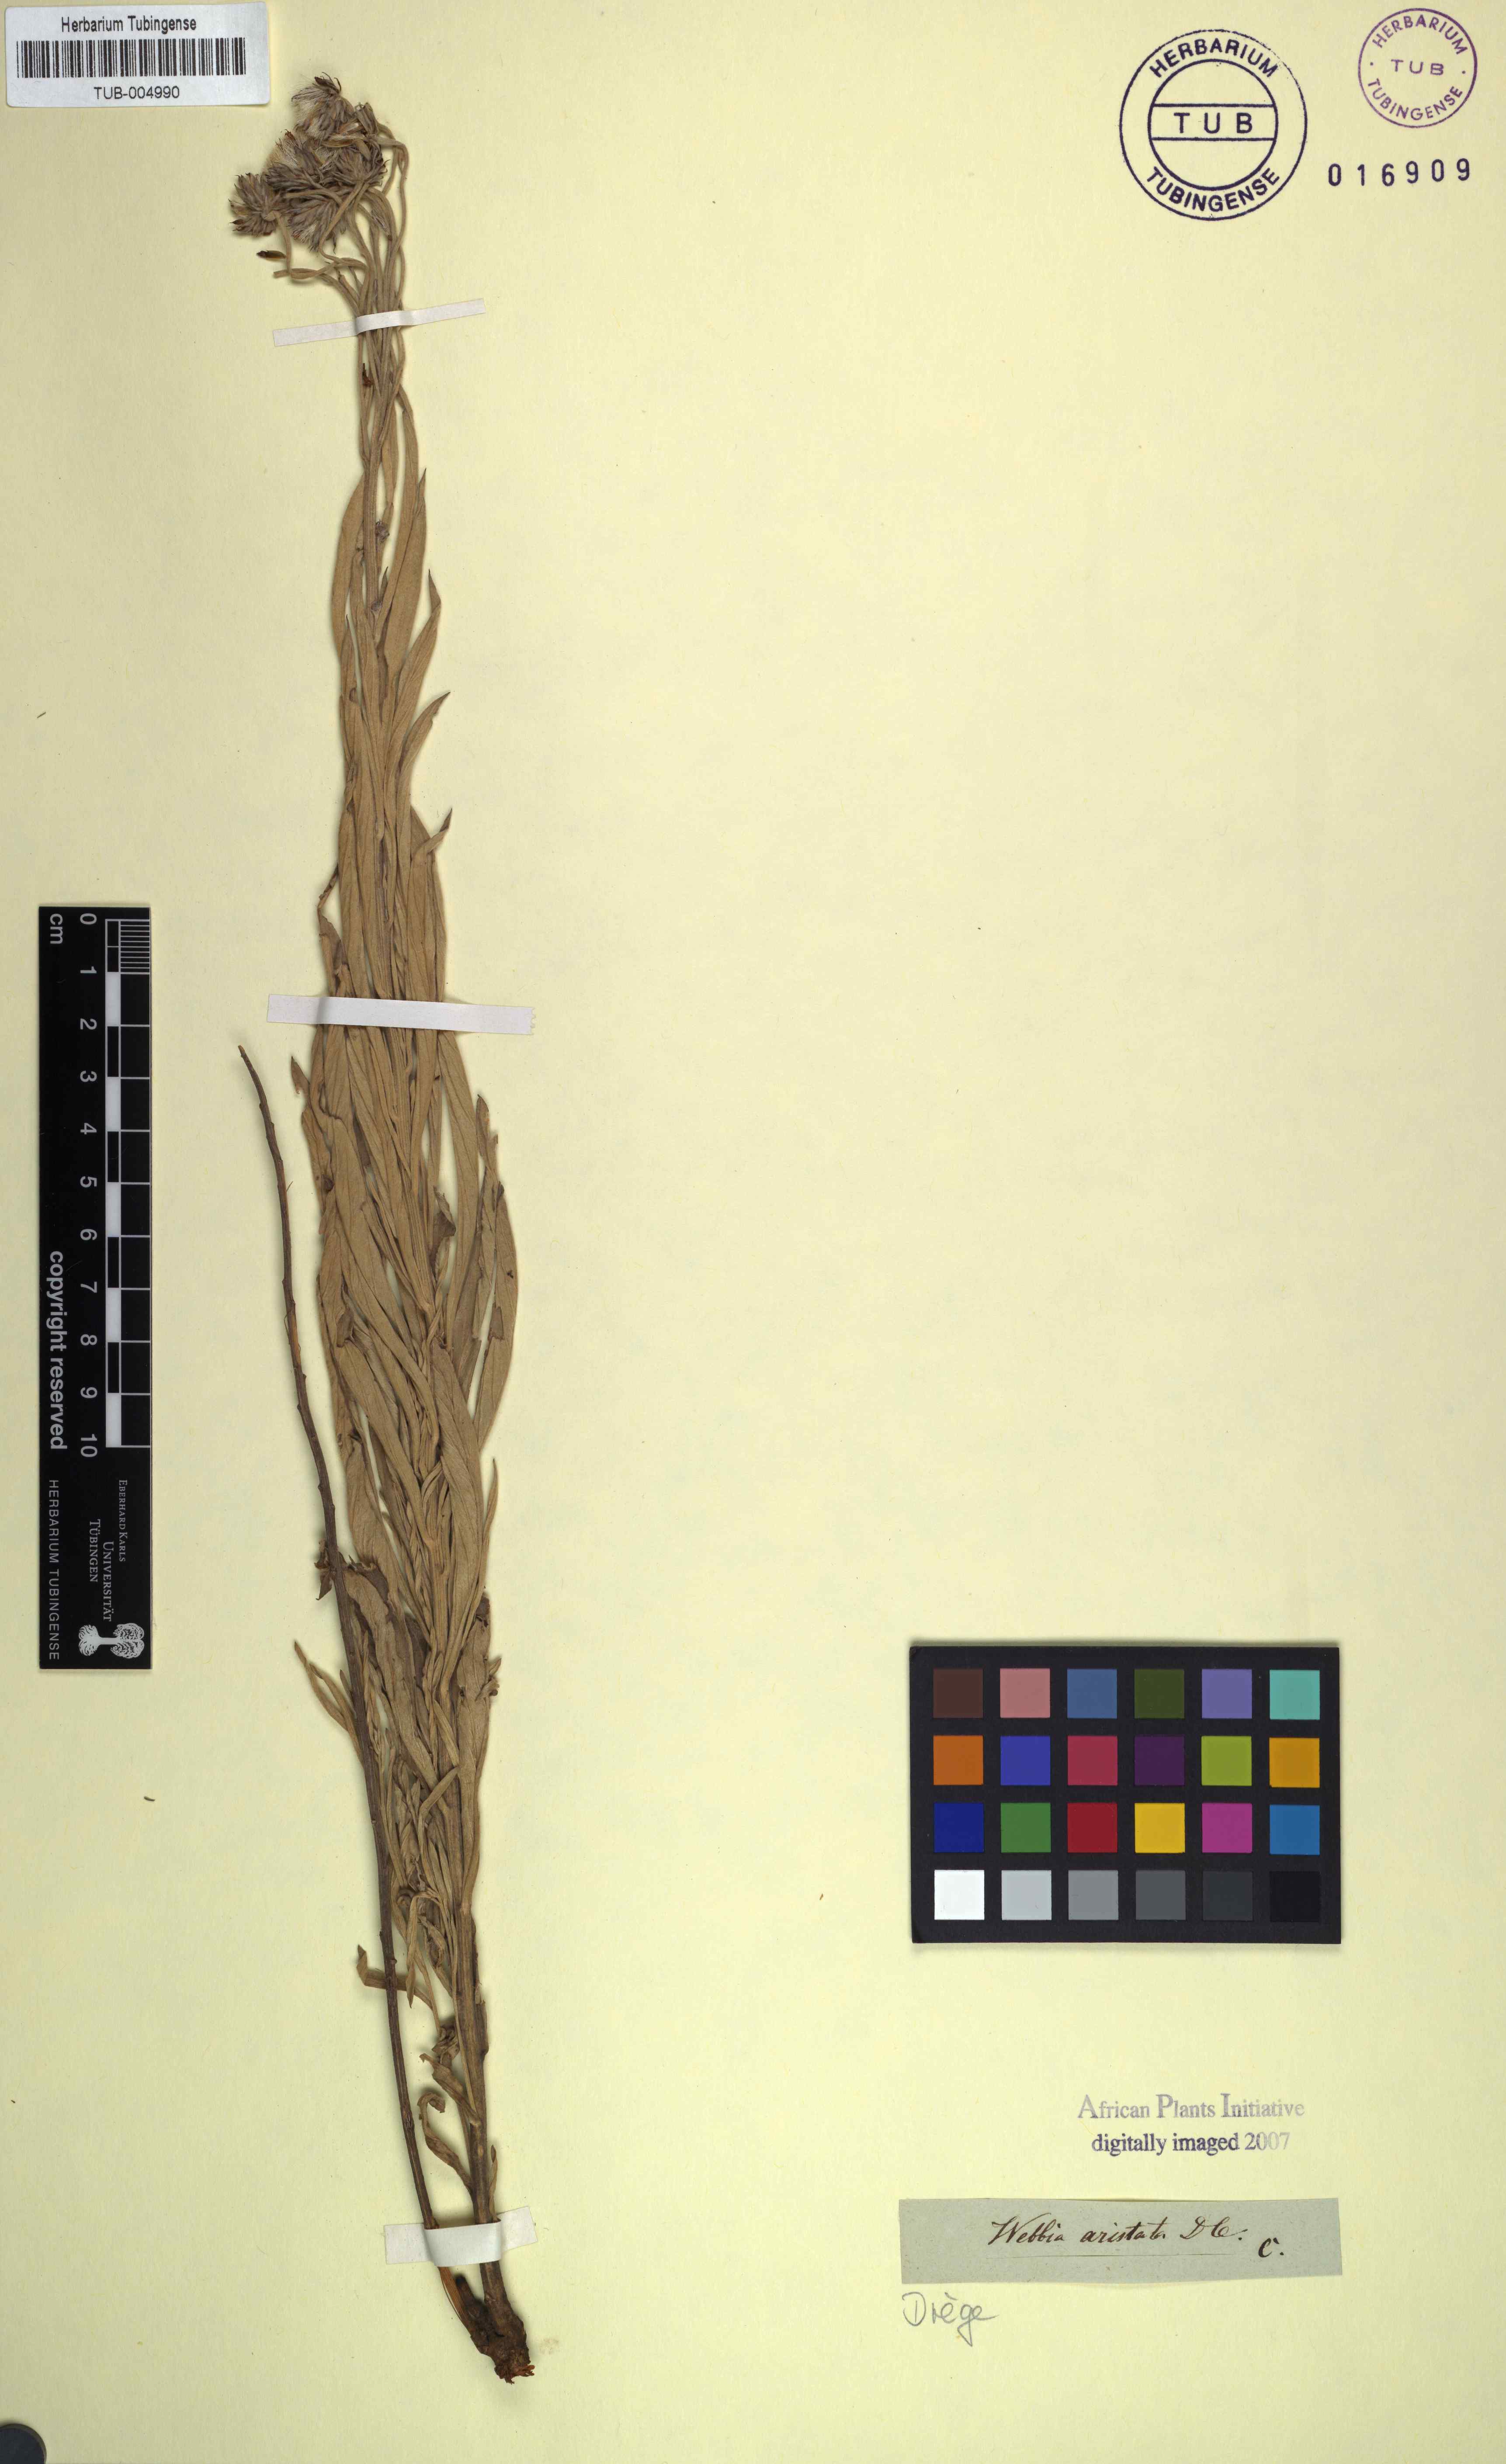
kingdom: Plantae
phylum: Tracheophyta
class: Magnoliopsida
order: Asterales
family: Asteraceae
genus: Hilliardiella
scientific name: Hilliardiella aristata
